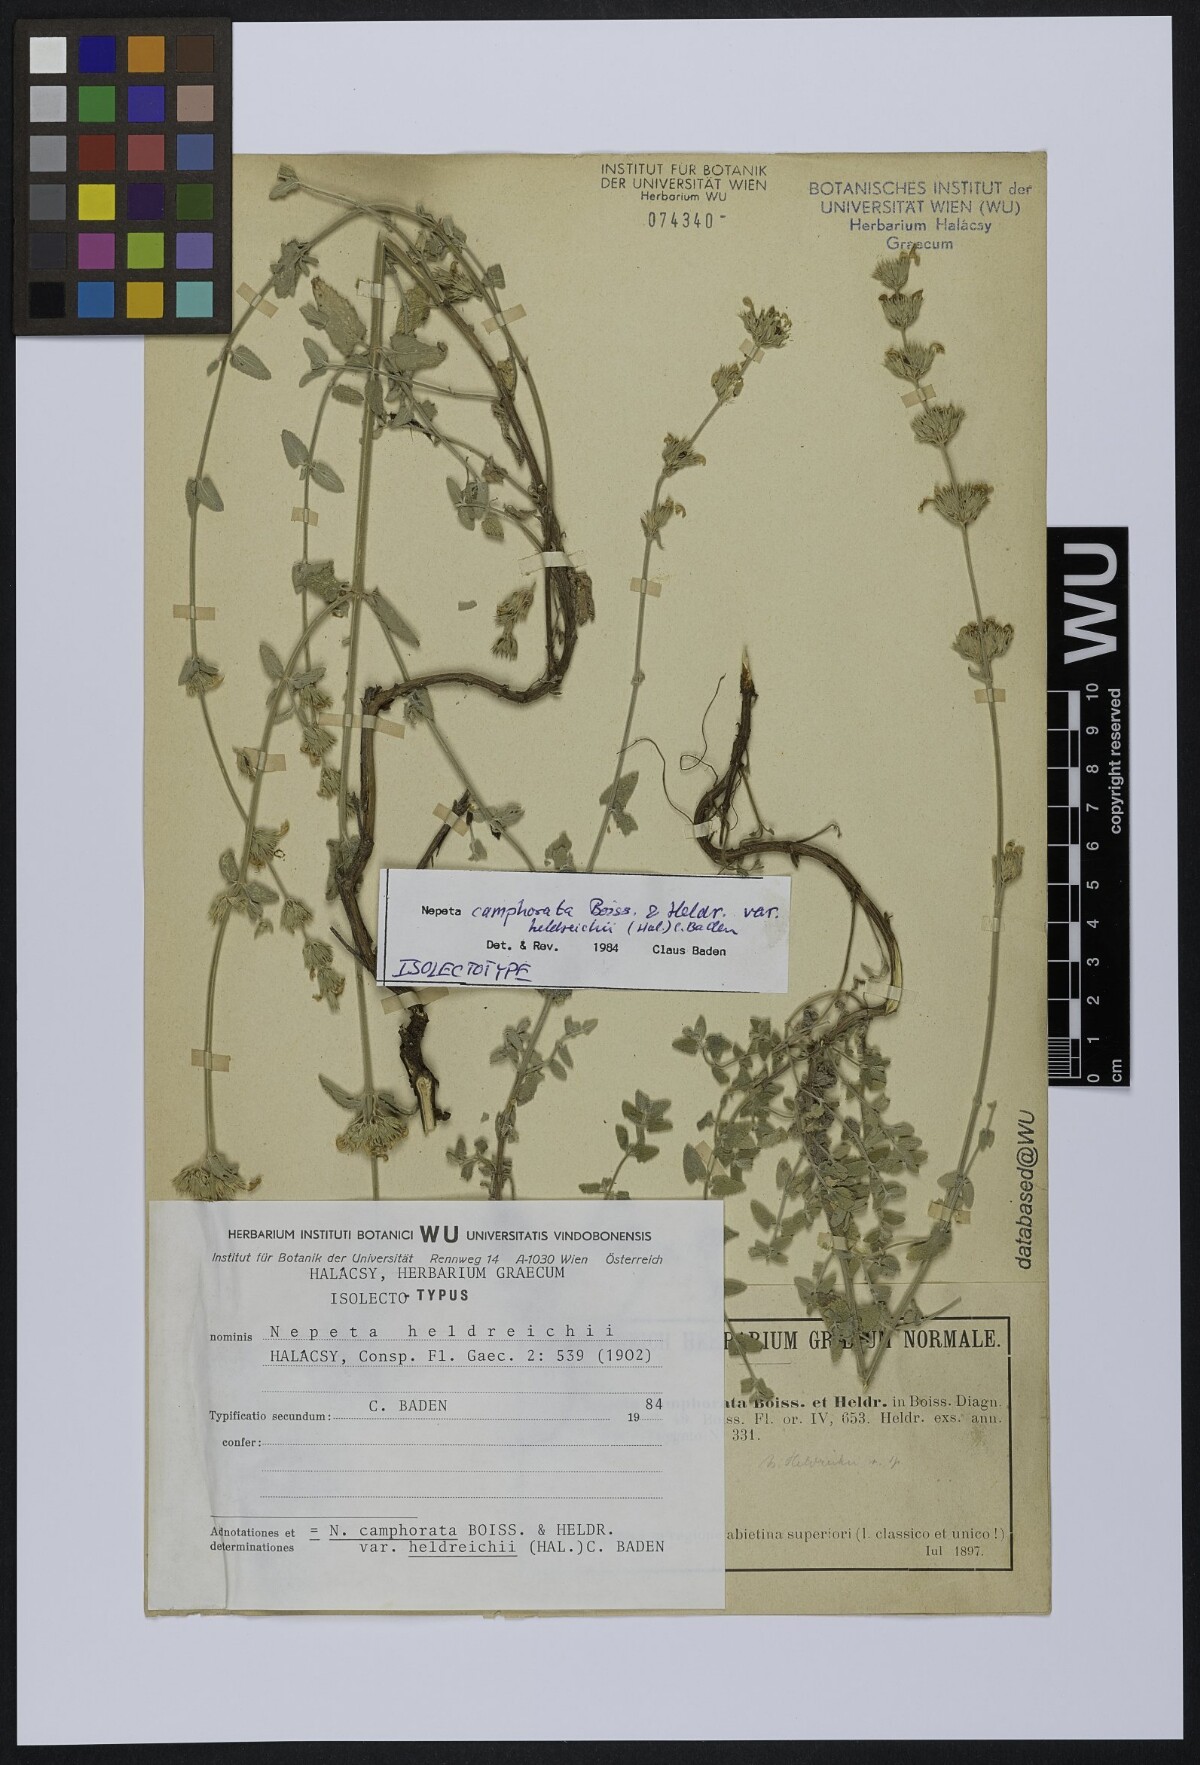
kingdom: Plantae
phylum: Tracheophyta
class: Magnoliopsida
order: Lamiales
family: Lamiaceae
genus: Nepeta
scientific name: Nepeta camphorata
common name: Camphor catmint
